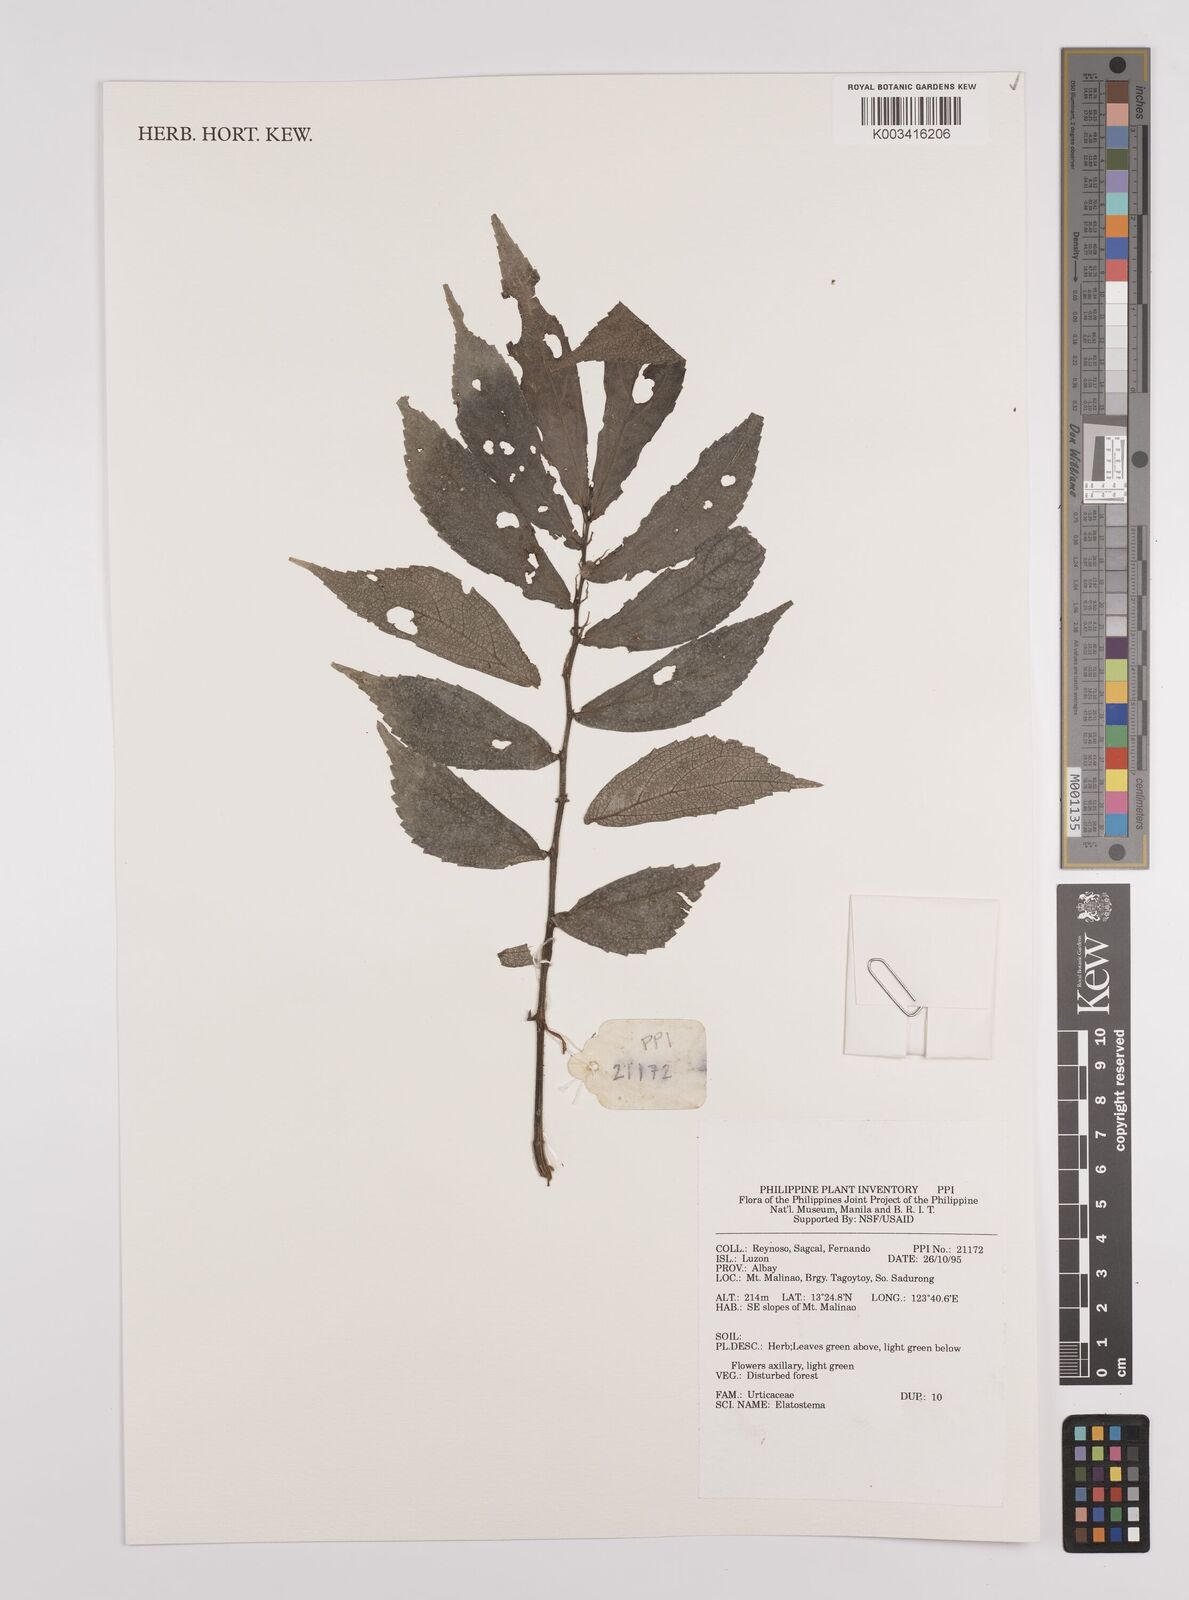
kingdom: Plantae
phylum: Tracheophyta
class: Magnoliopsida
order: Rosales
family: Urticaceae
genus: Elatostema
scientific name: Elatostema
